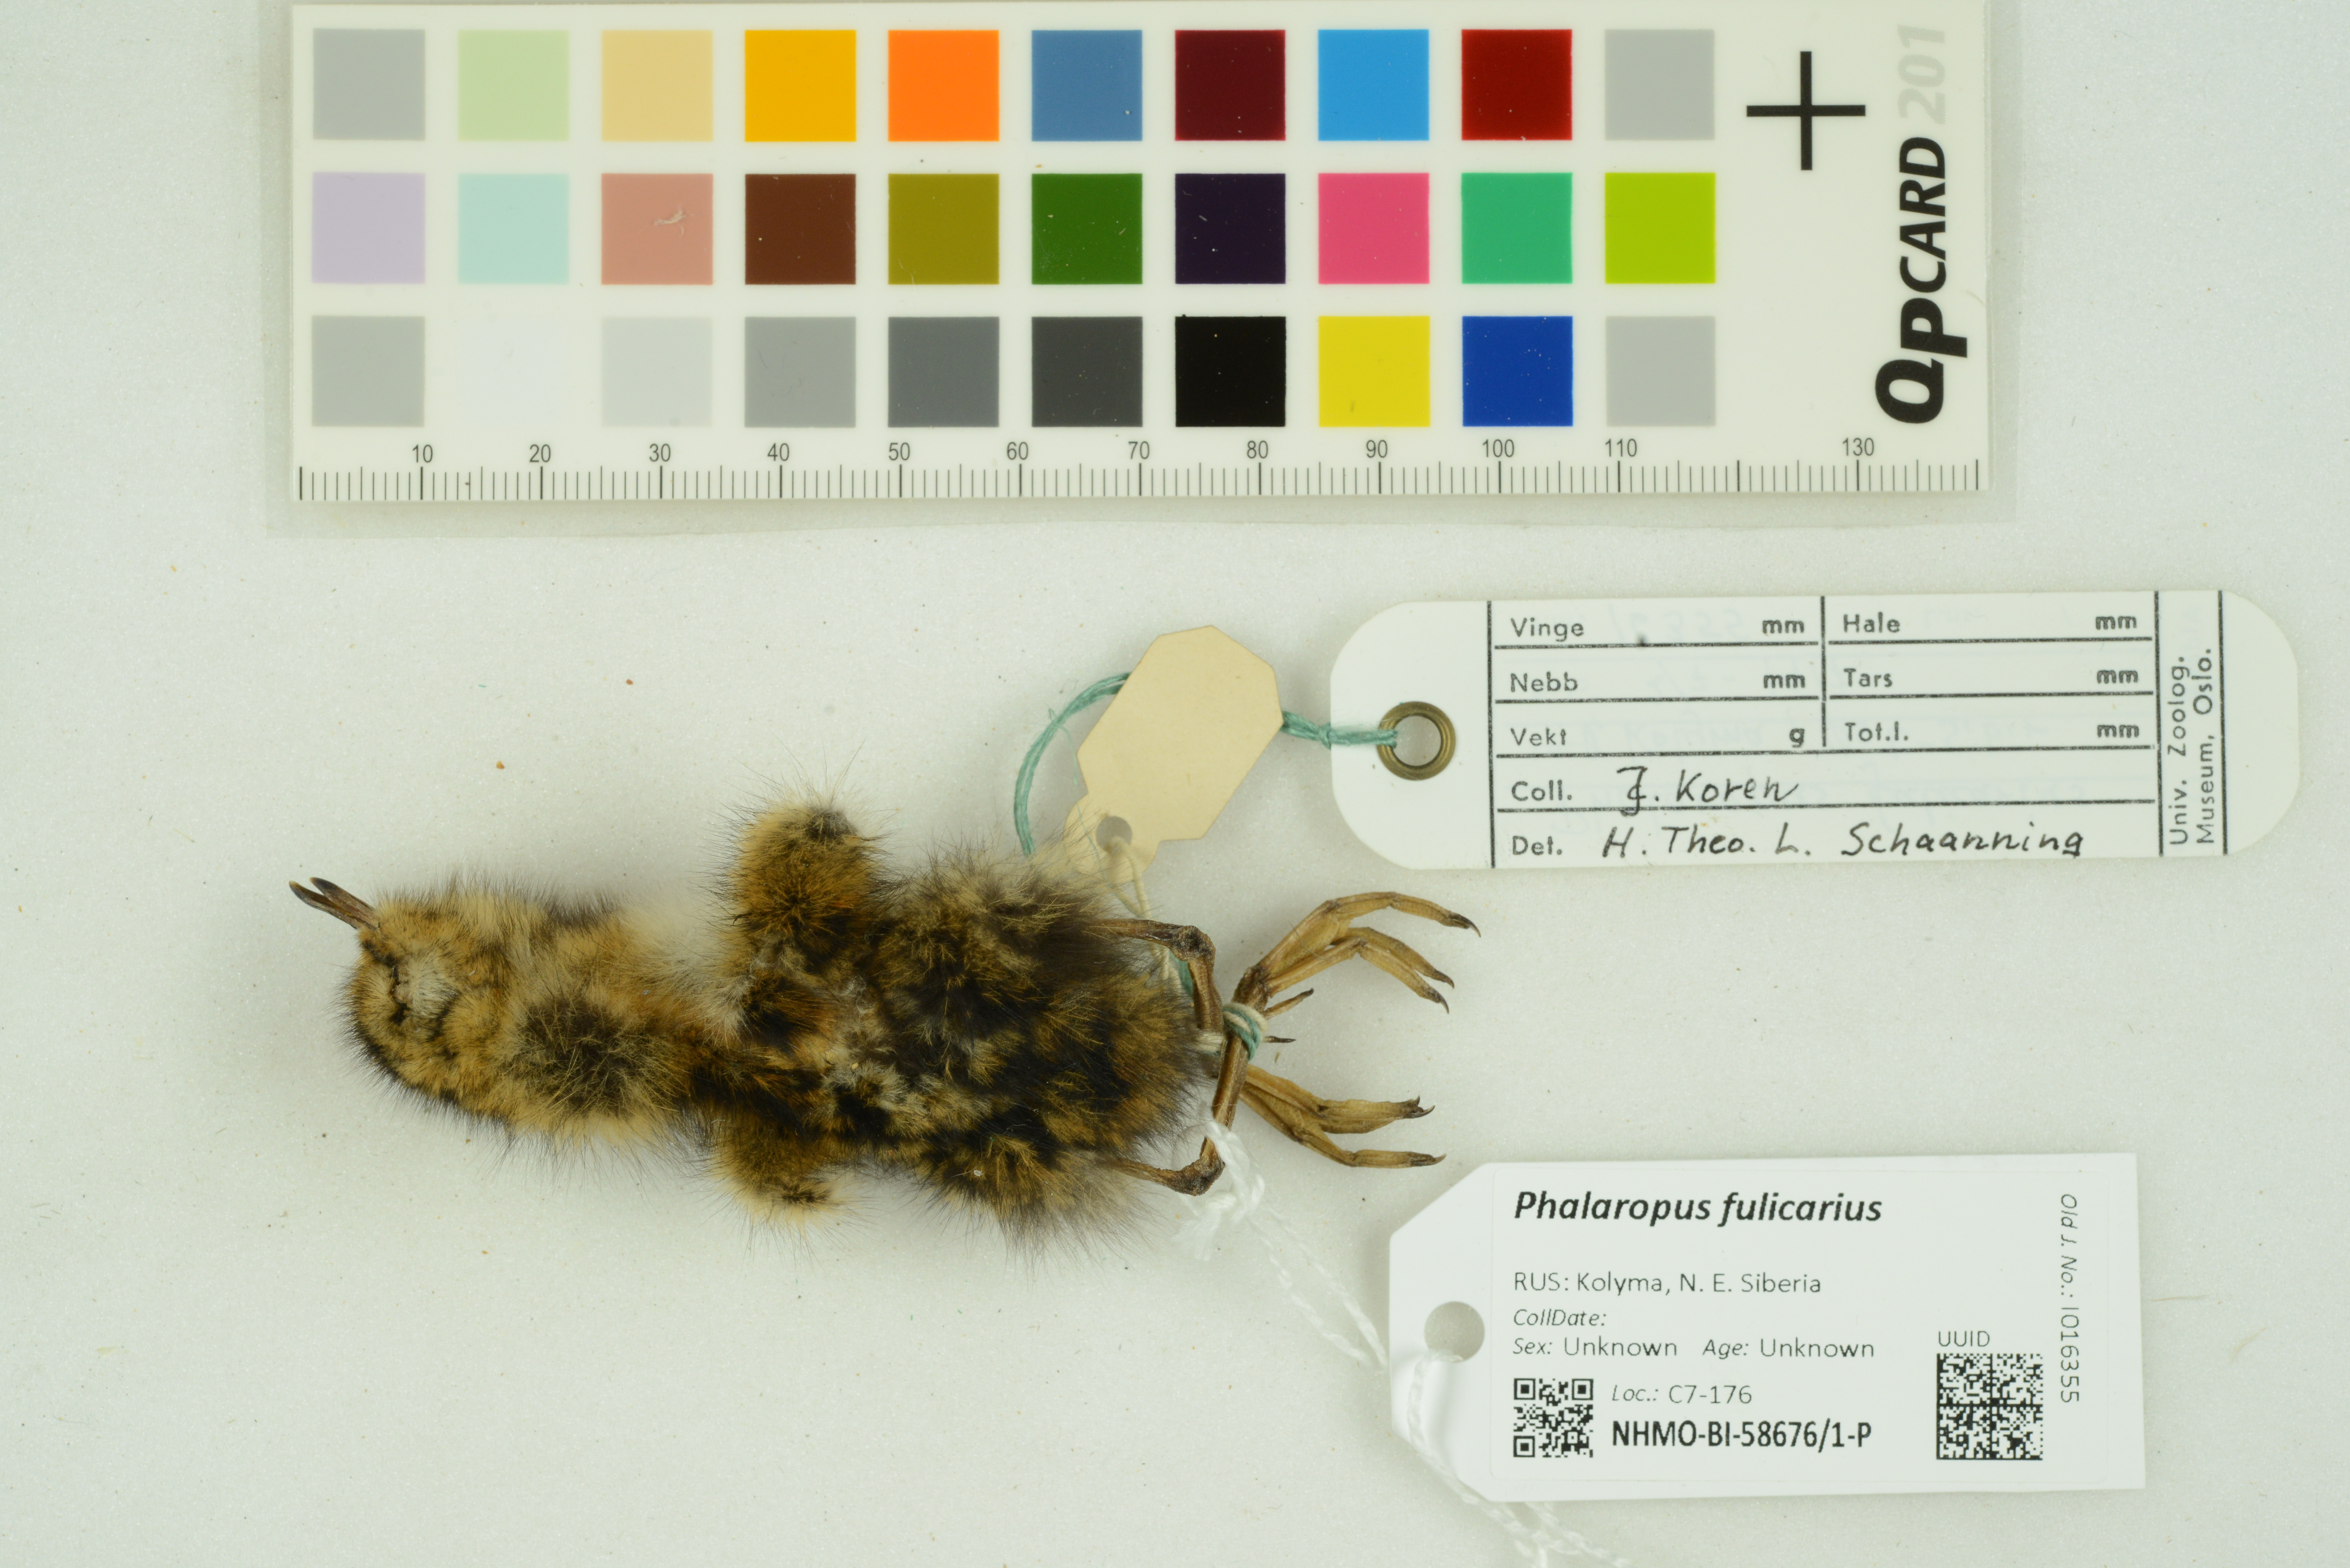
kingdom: Animalia
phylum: Chordata
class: Aves
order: Charadriiformes
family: Scolopacidae
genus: Phalaropus
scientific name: Phalaropus fulicarius
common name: Red phalarope
